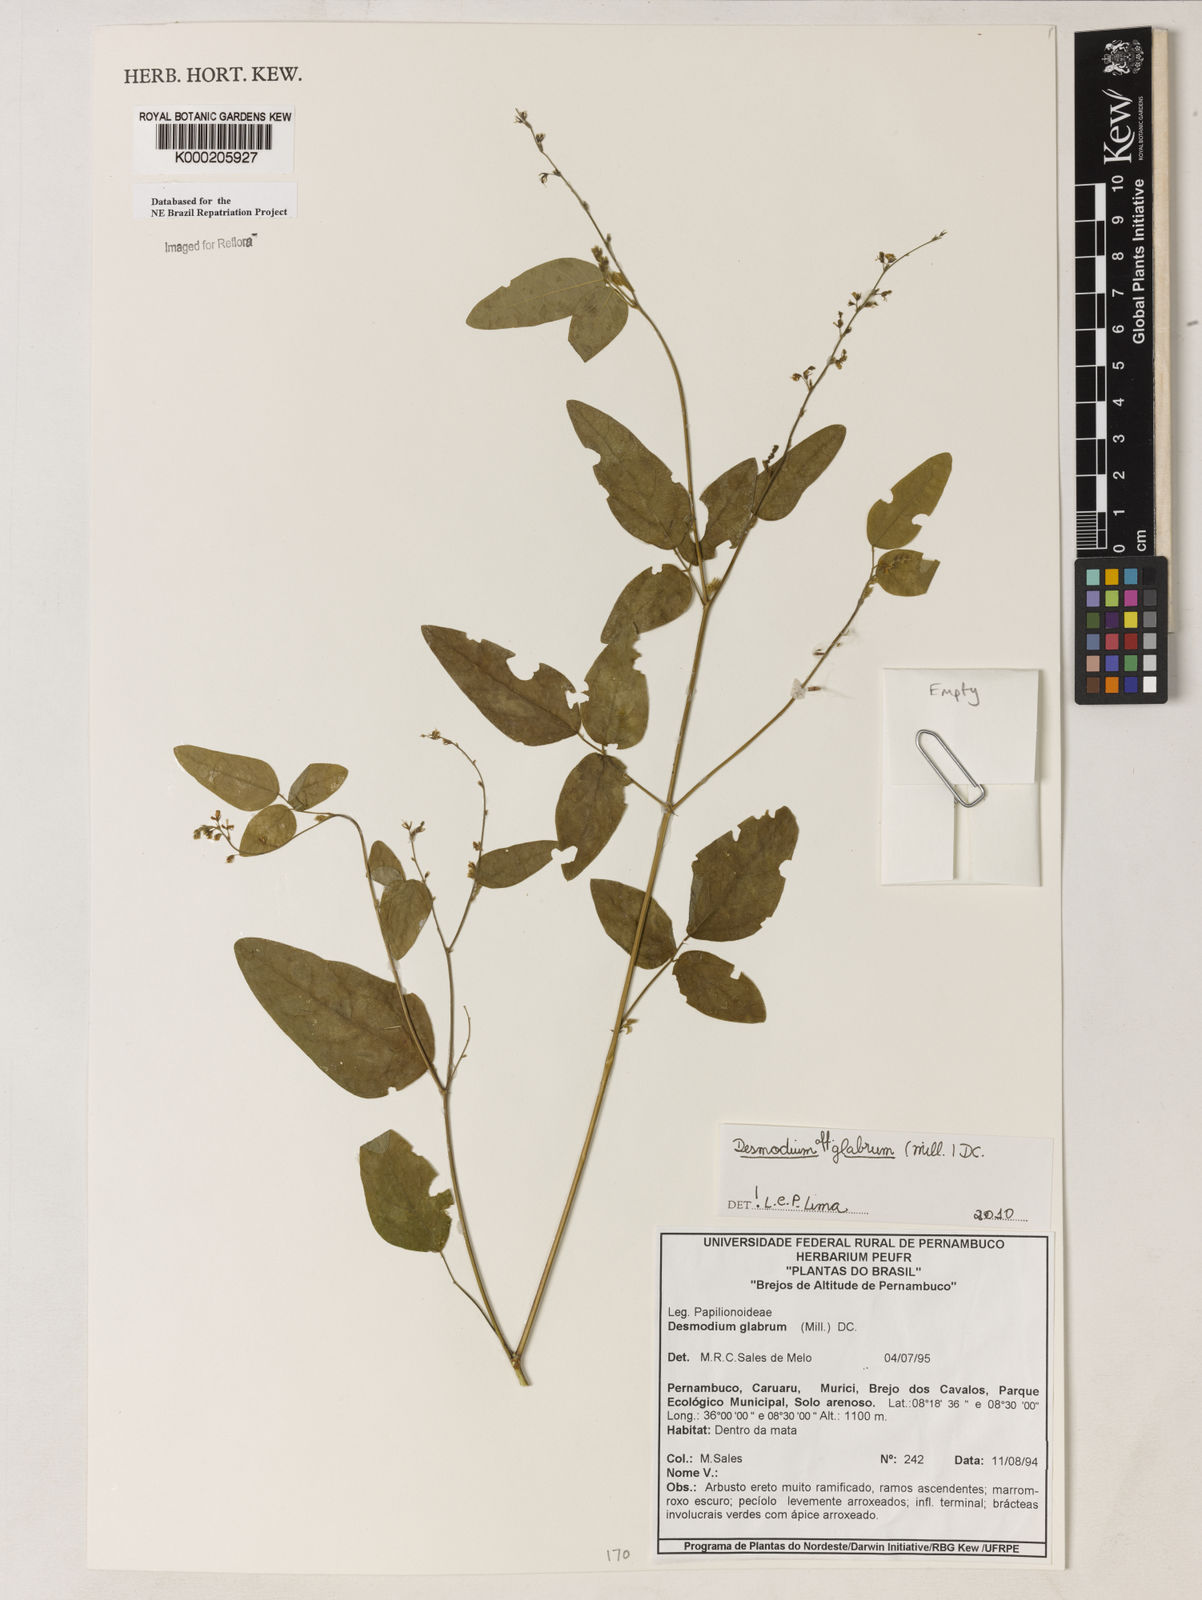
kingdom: Plantae
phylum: Tracheophyta
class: Magnoliopsida
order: Fabales
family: Fabaceae
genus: Desmodium
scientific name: Desmodium glabrum
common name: Zarzabacoa dulce
